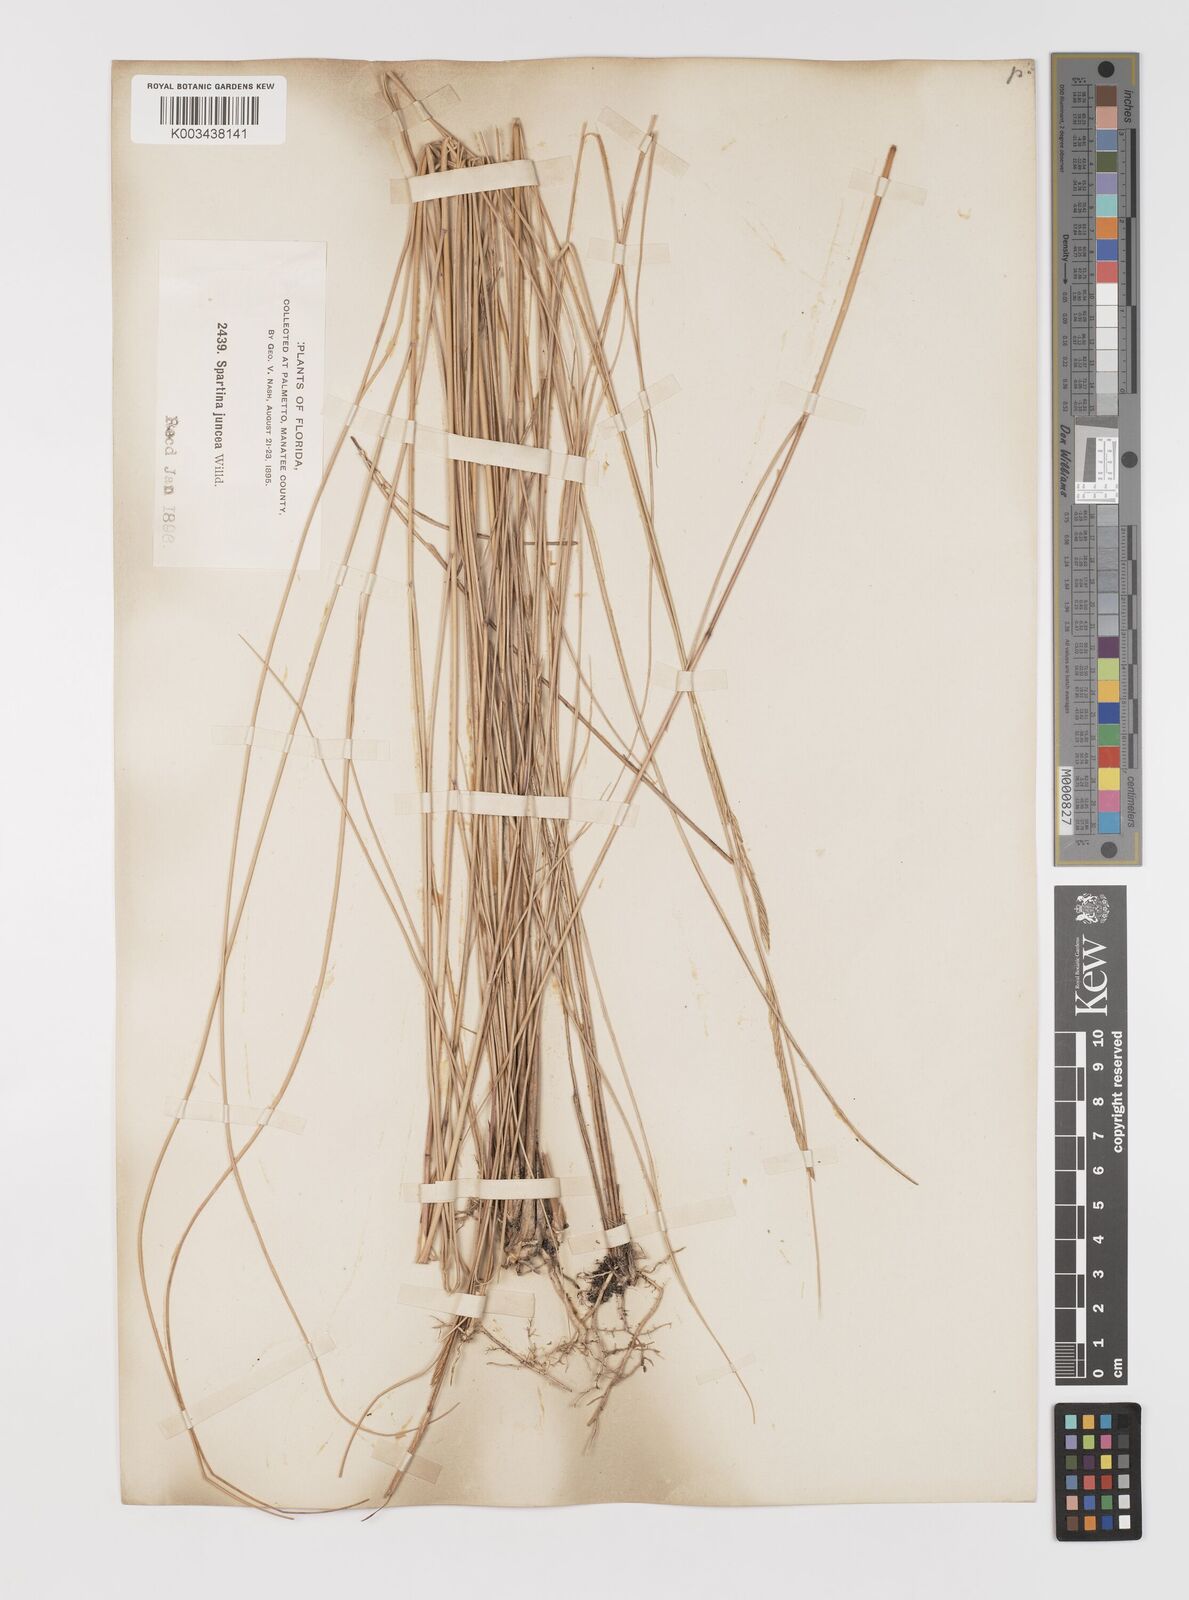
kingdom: Plantae
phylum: Tracheophyta
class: Liliopsida
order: Poales
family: Poaceae
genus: Sporobolus
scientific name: Sporobolus pumilus
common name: Highwater grass
